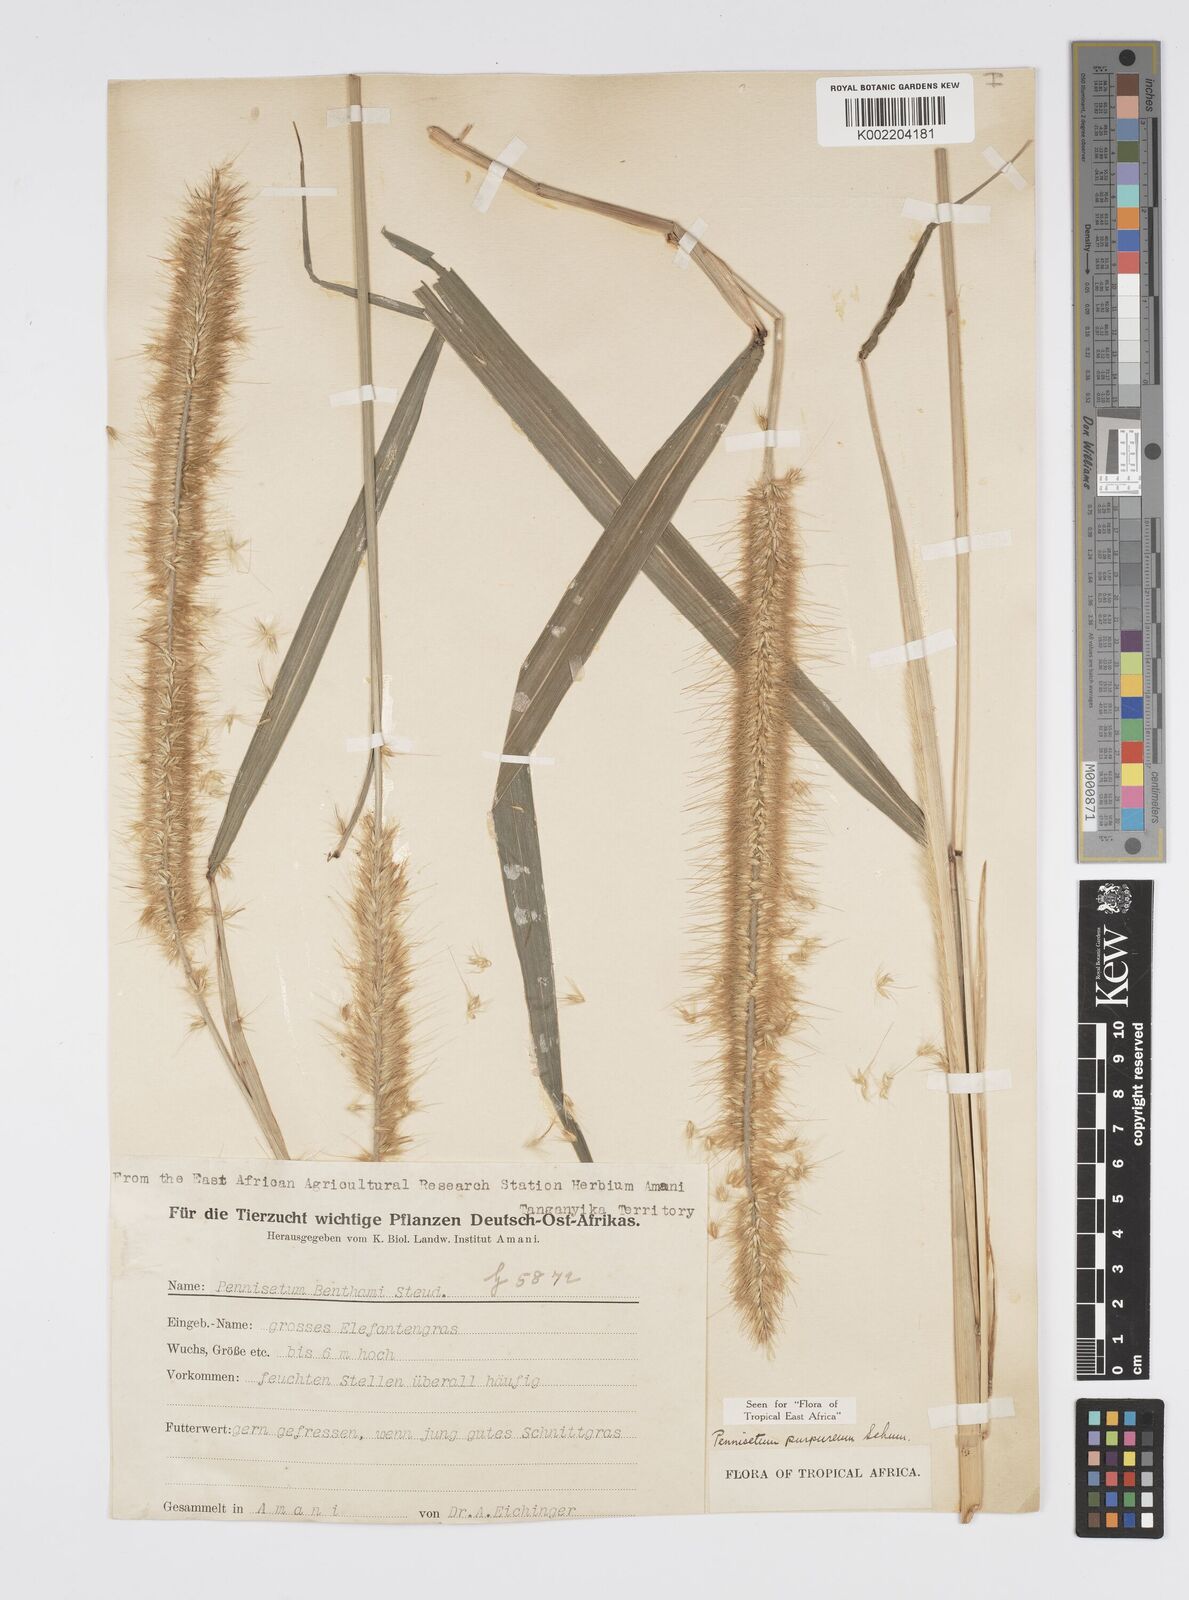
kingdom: Plantae
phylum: Tracheophyta
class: Liliopsida
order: Poales
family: Poaceae
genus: Cenchrus
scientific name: Cenchrus purpureus
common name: Elephant grass
